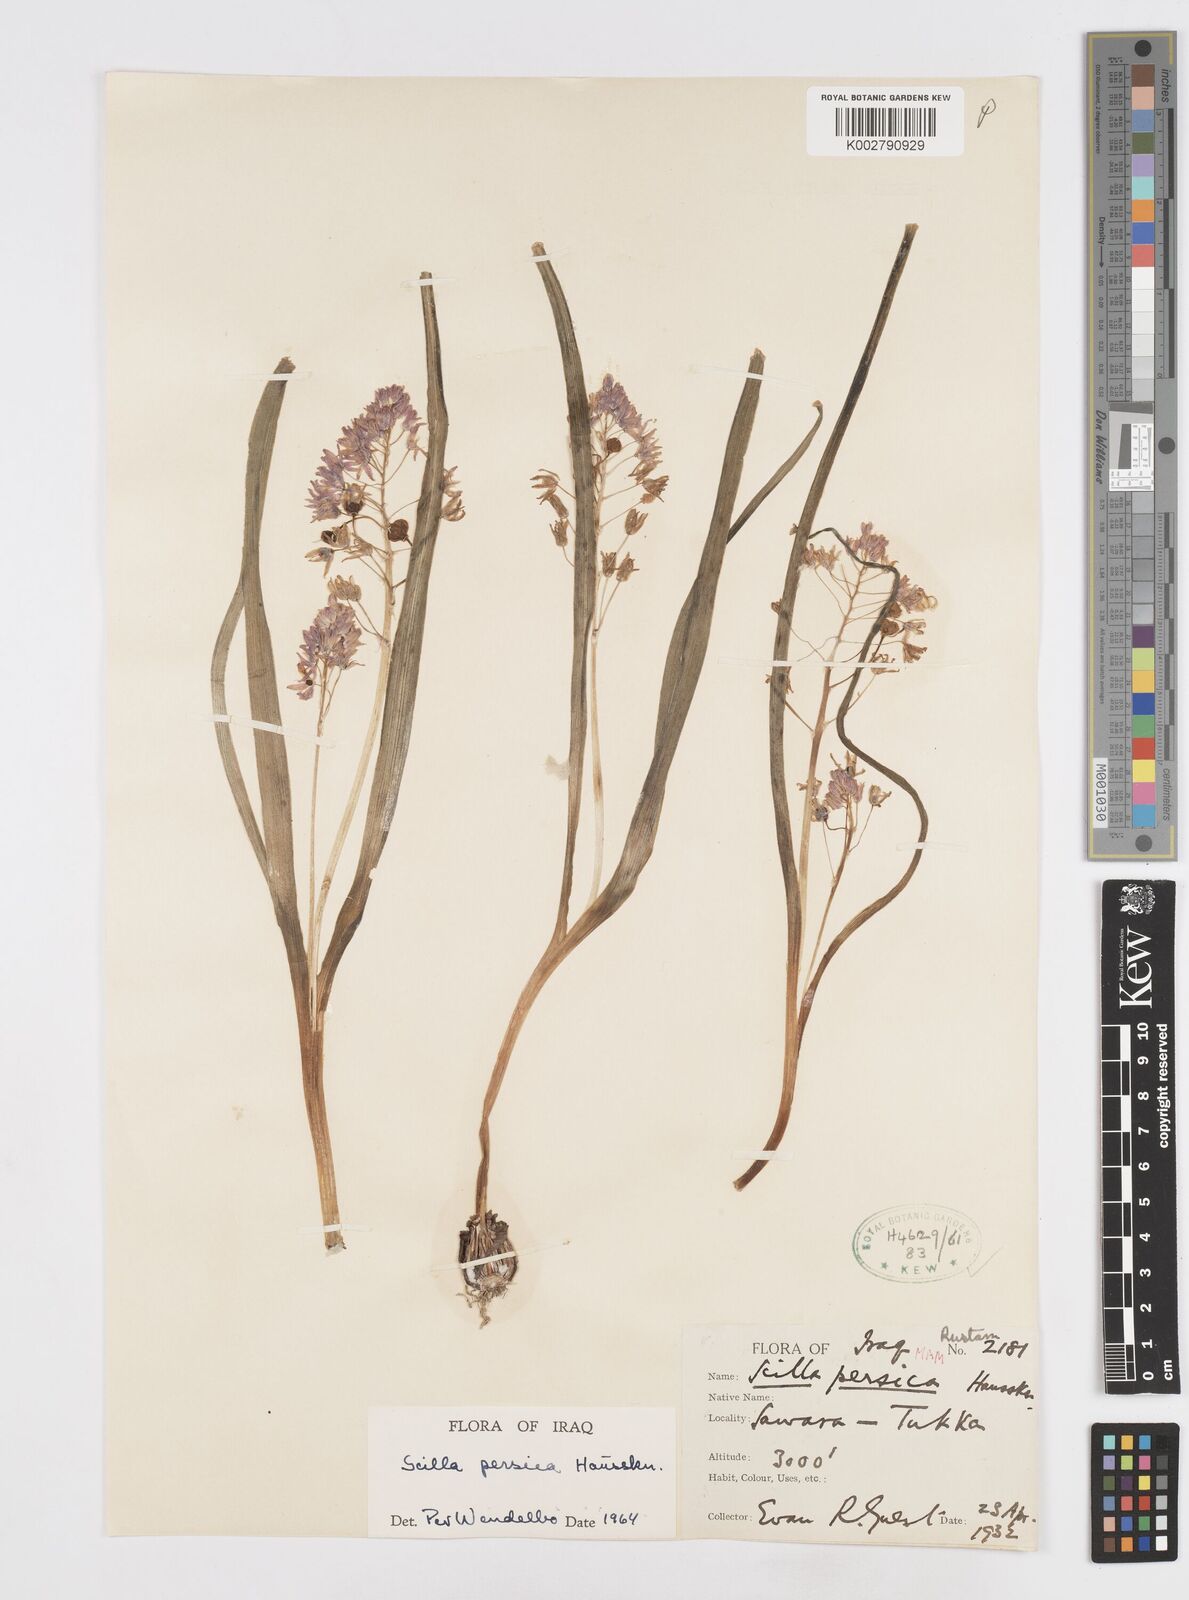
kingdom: Plantae
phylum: Tracheophyta
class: Liliopsida
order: Asparagales
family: Asparagaceae
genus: Zagrosia
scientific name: Zagrosia persica
